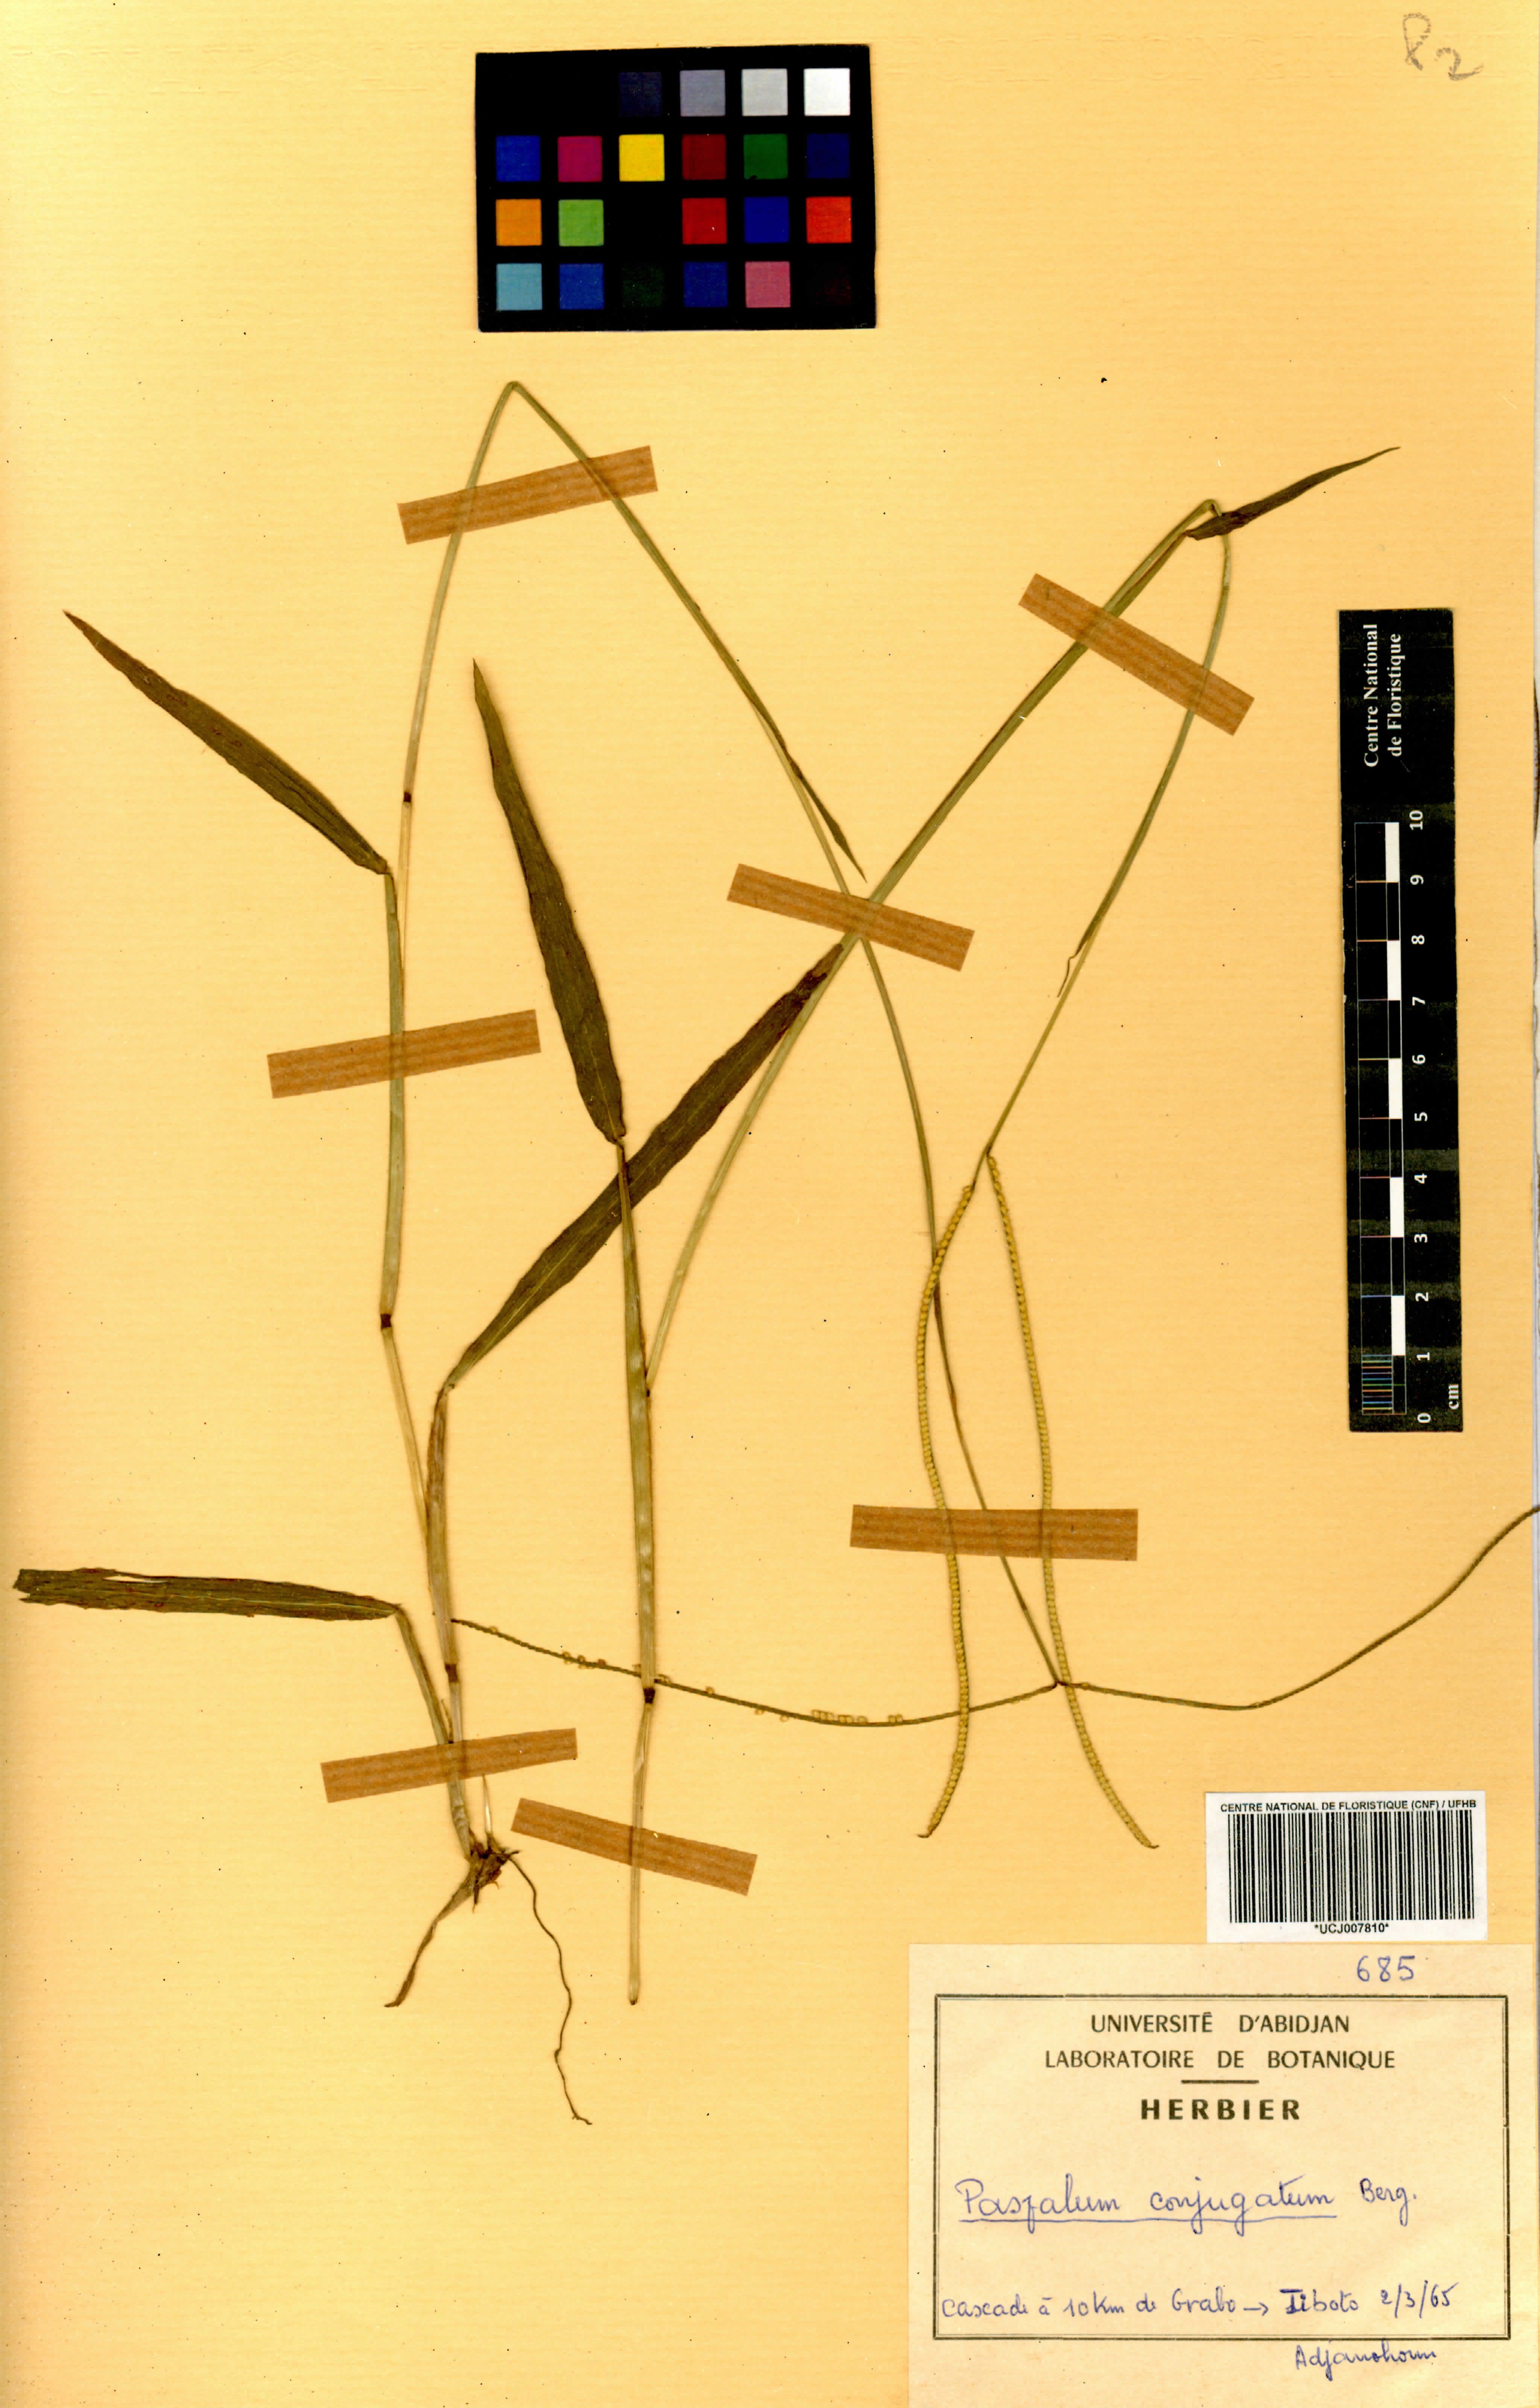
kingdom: Plantae
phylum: Tracheophyta
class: Liliopsida
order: Poales
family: Poaceae
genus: Paspalum
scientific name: Paspalum conjugatum
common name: Hilograss
